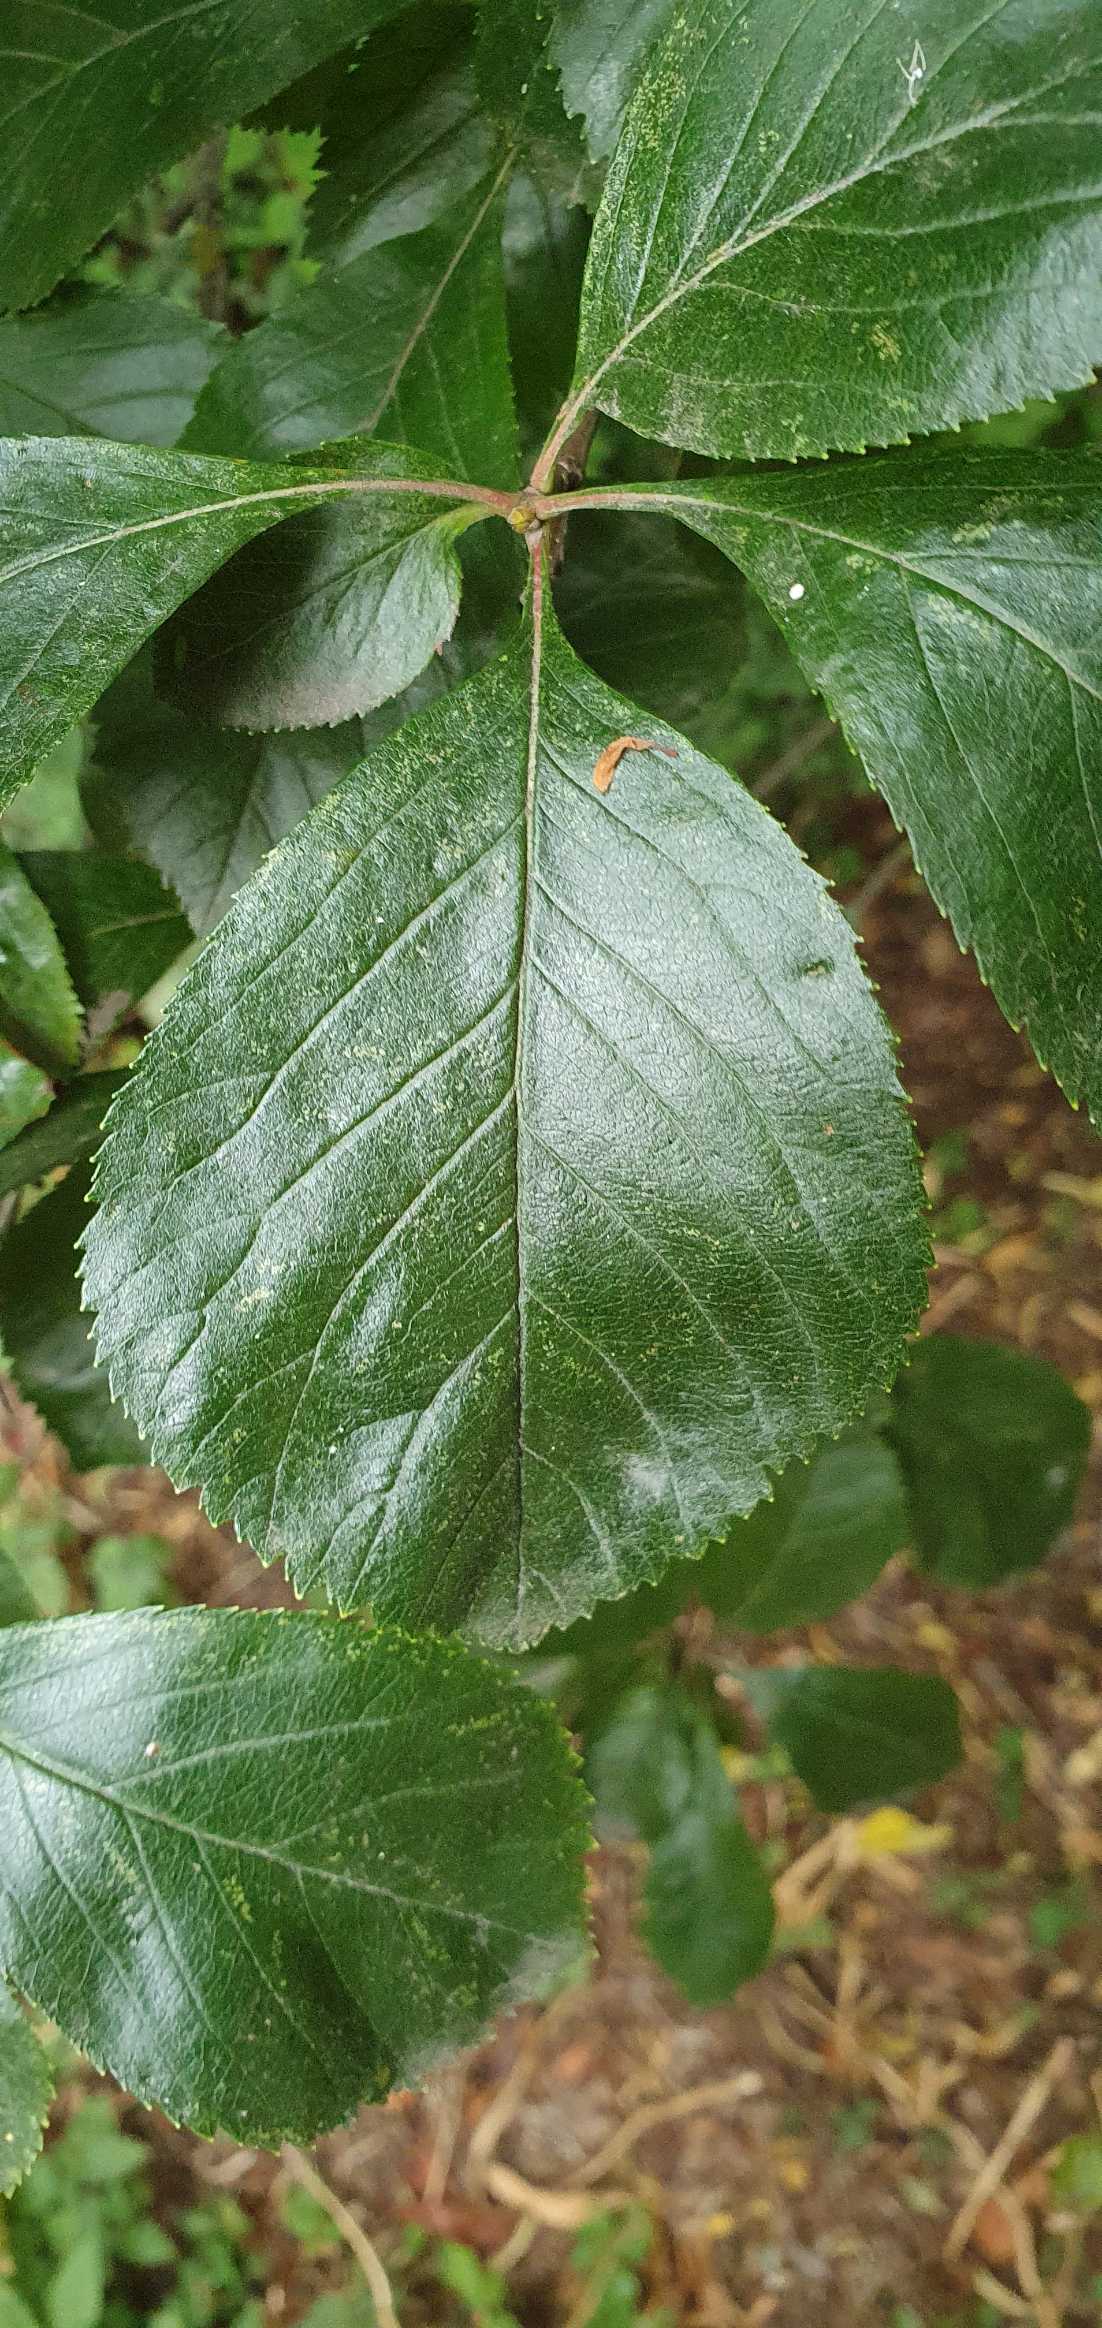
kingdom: Plantae
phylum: Tracheophyta
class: Magnoliopsida
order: Rosales
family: Rosaceae
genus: Crataegus
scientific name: Crataegus persimilis
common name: Syltornet tjørn
